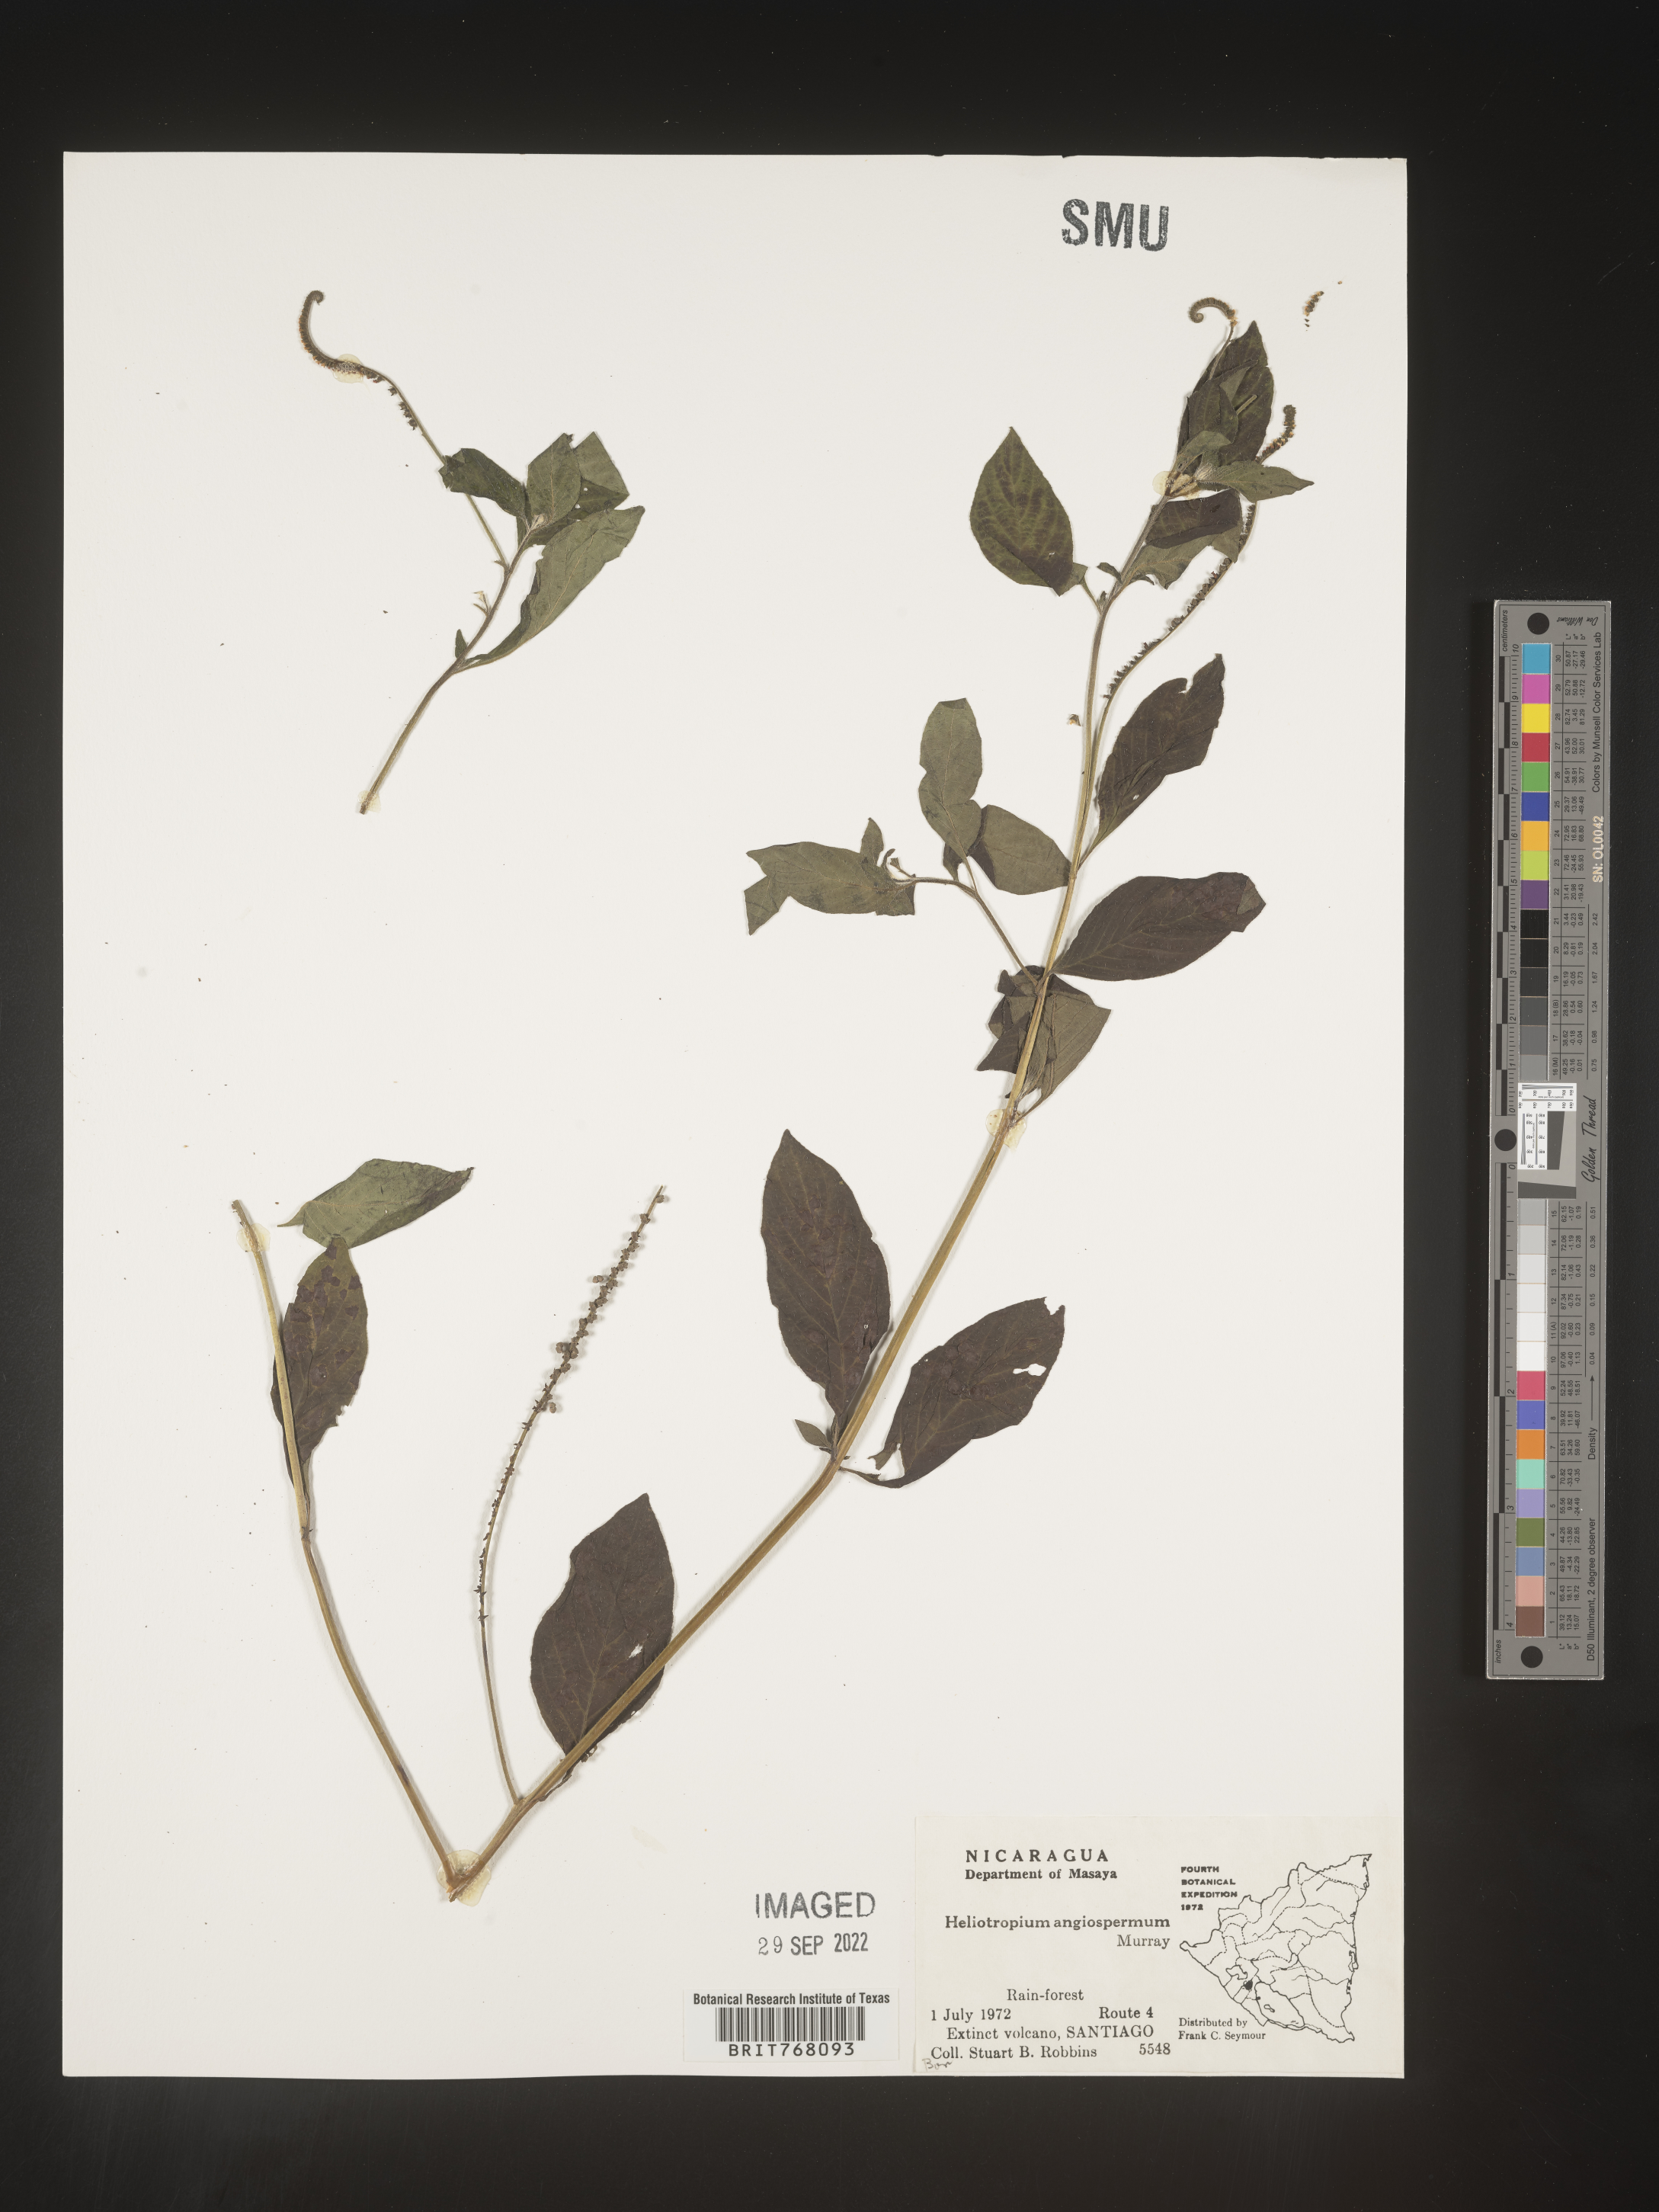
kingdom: Plantae
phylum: Tracheophyta
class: Magnoliopsida
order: Boraginales
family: Heliotropiaceae
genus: Heliotropium
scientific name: Heliotropium
